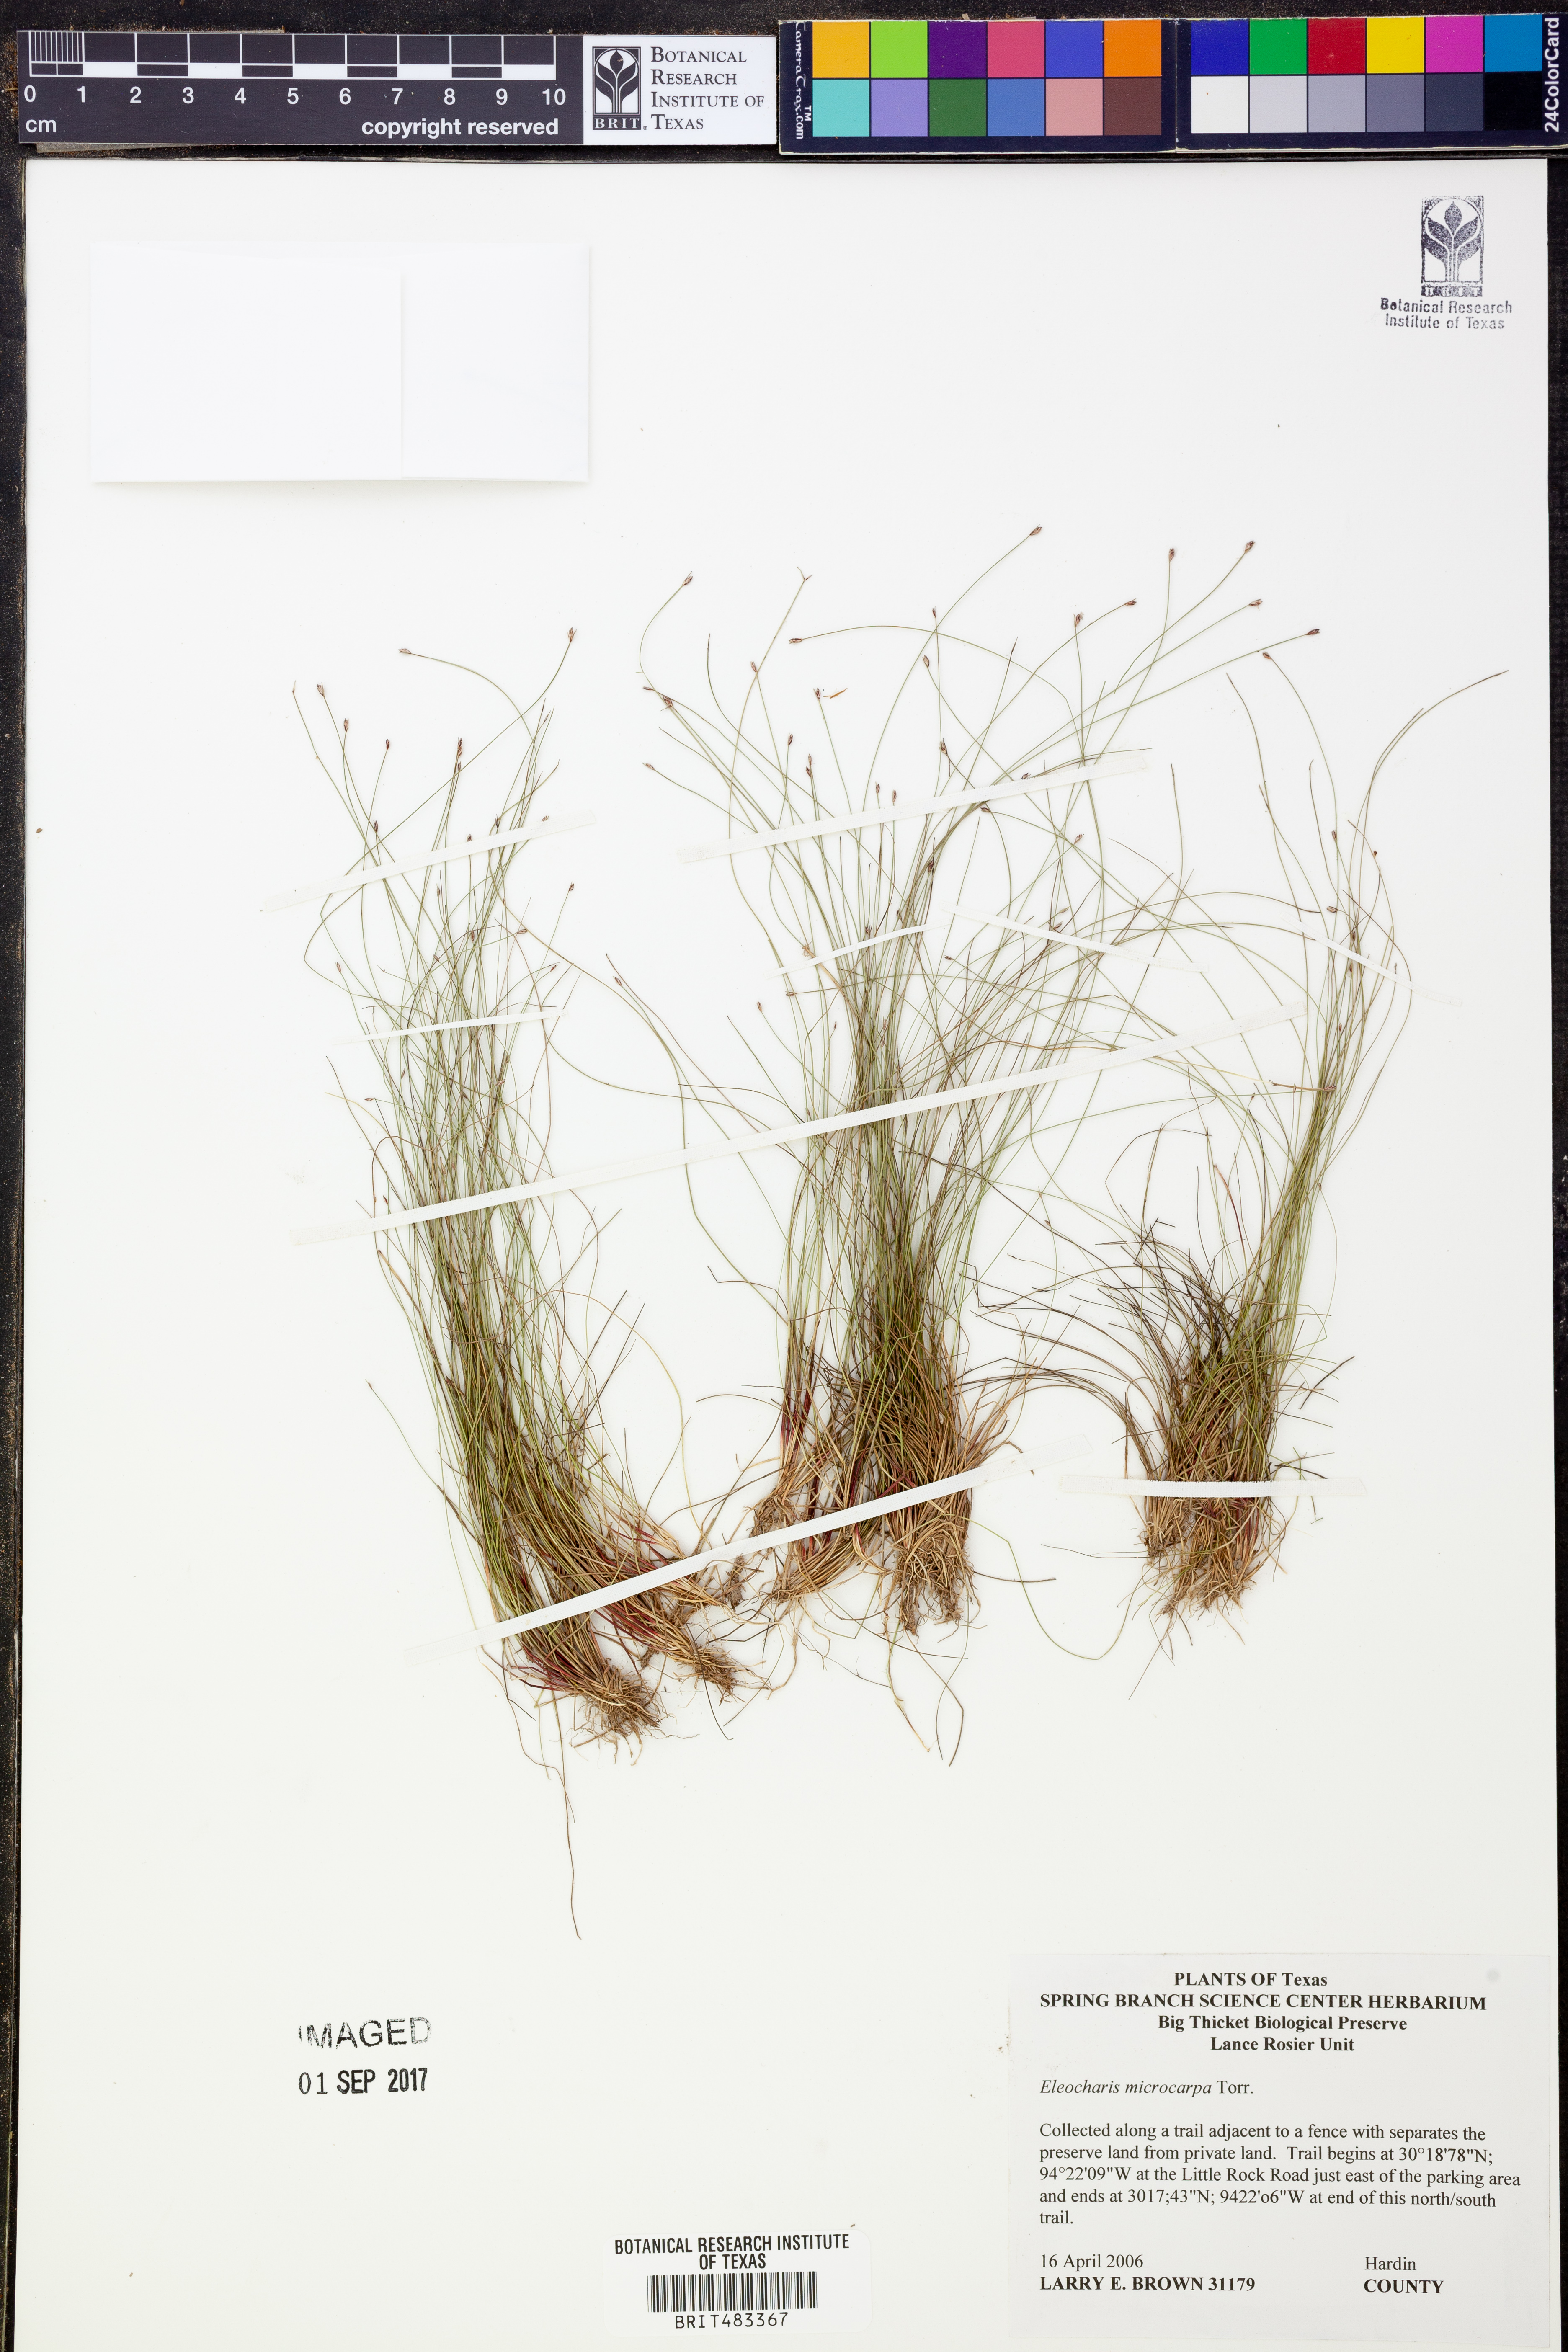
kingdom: Plantae
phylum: Tracheophyta
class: Liliopsida
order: Poales
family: Cyperaceae
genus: Eleocharis
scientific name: Eleocharis microcarpa
